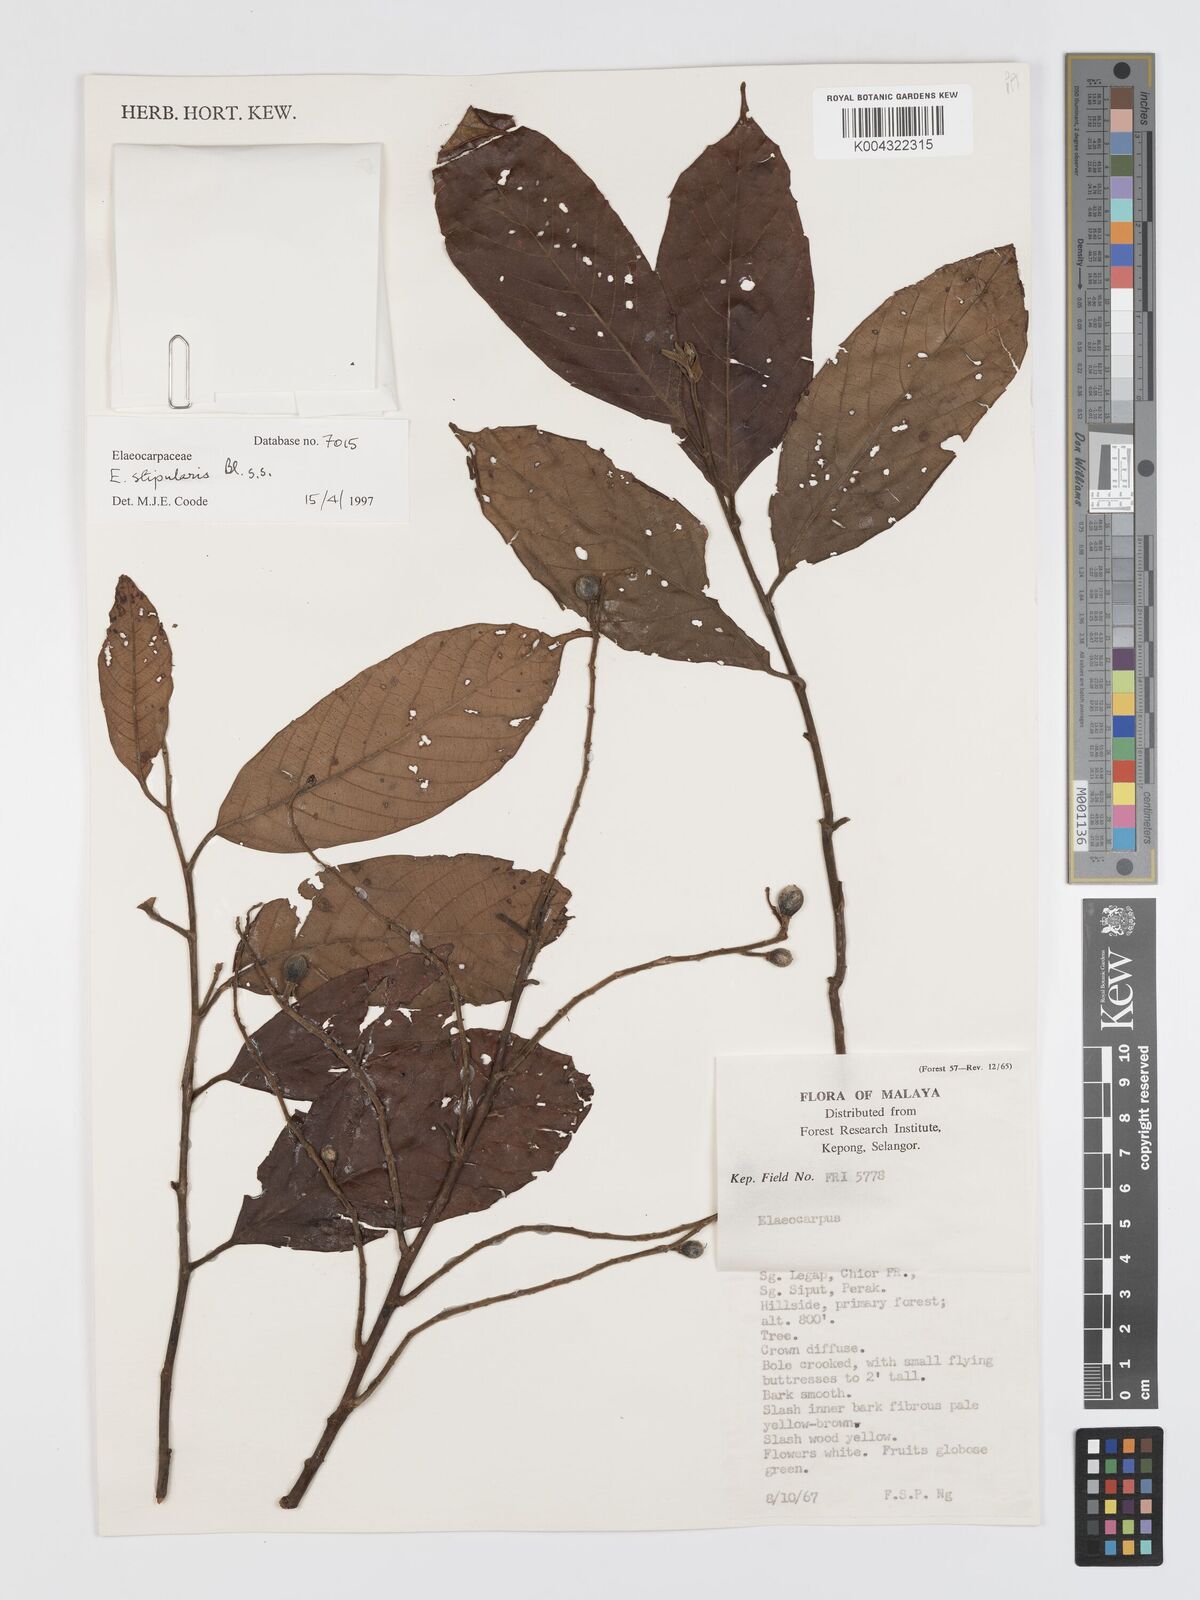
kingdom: Plantae
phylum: Tracheophyta
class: Magnoliopsida
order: Oxalidales
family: Elaeocarpaceae
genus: Elaeocarpus
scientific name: Elaeocarpus stipularis
